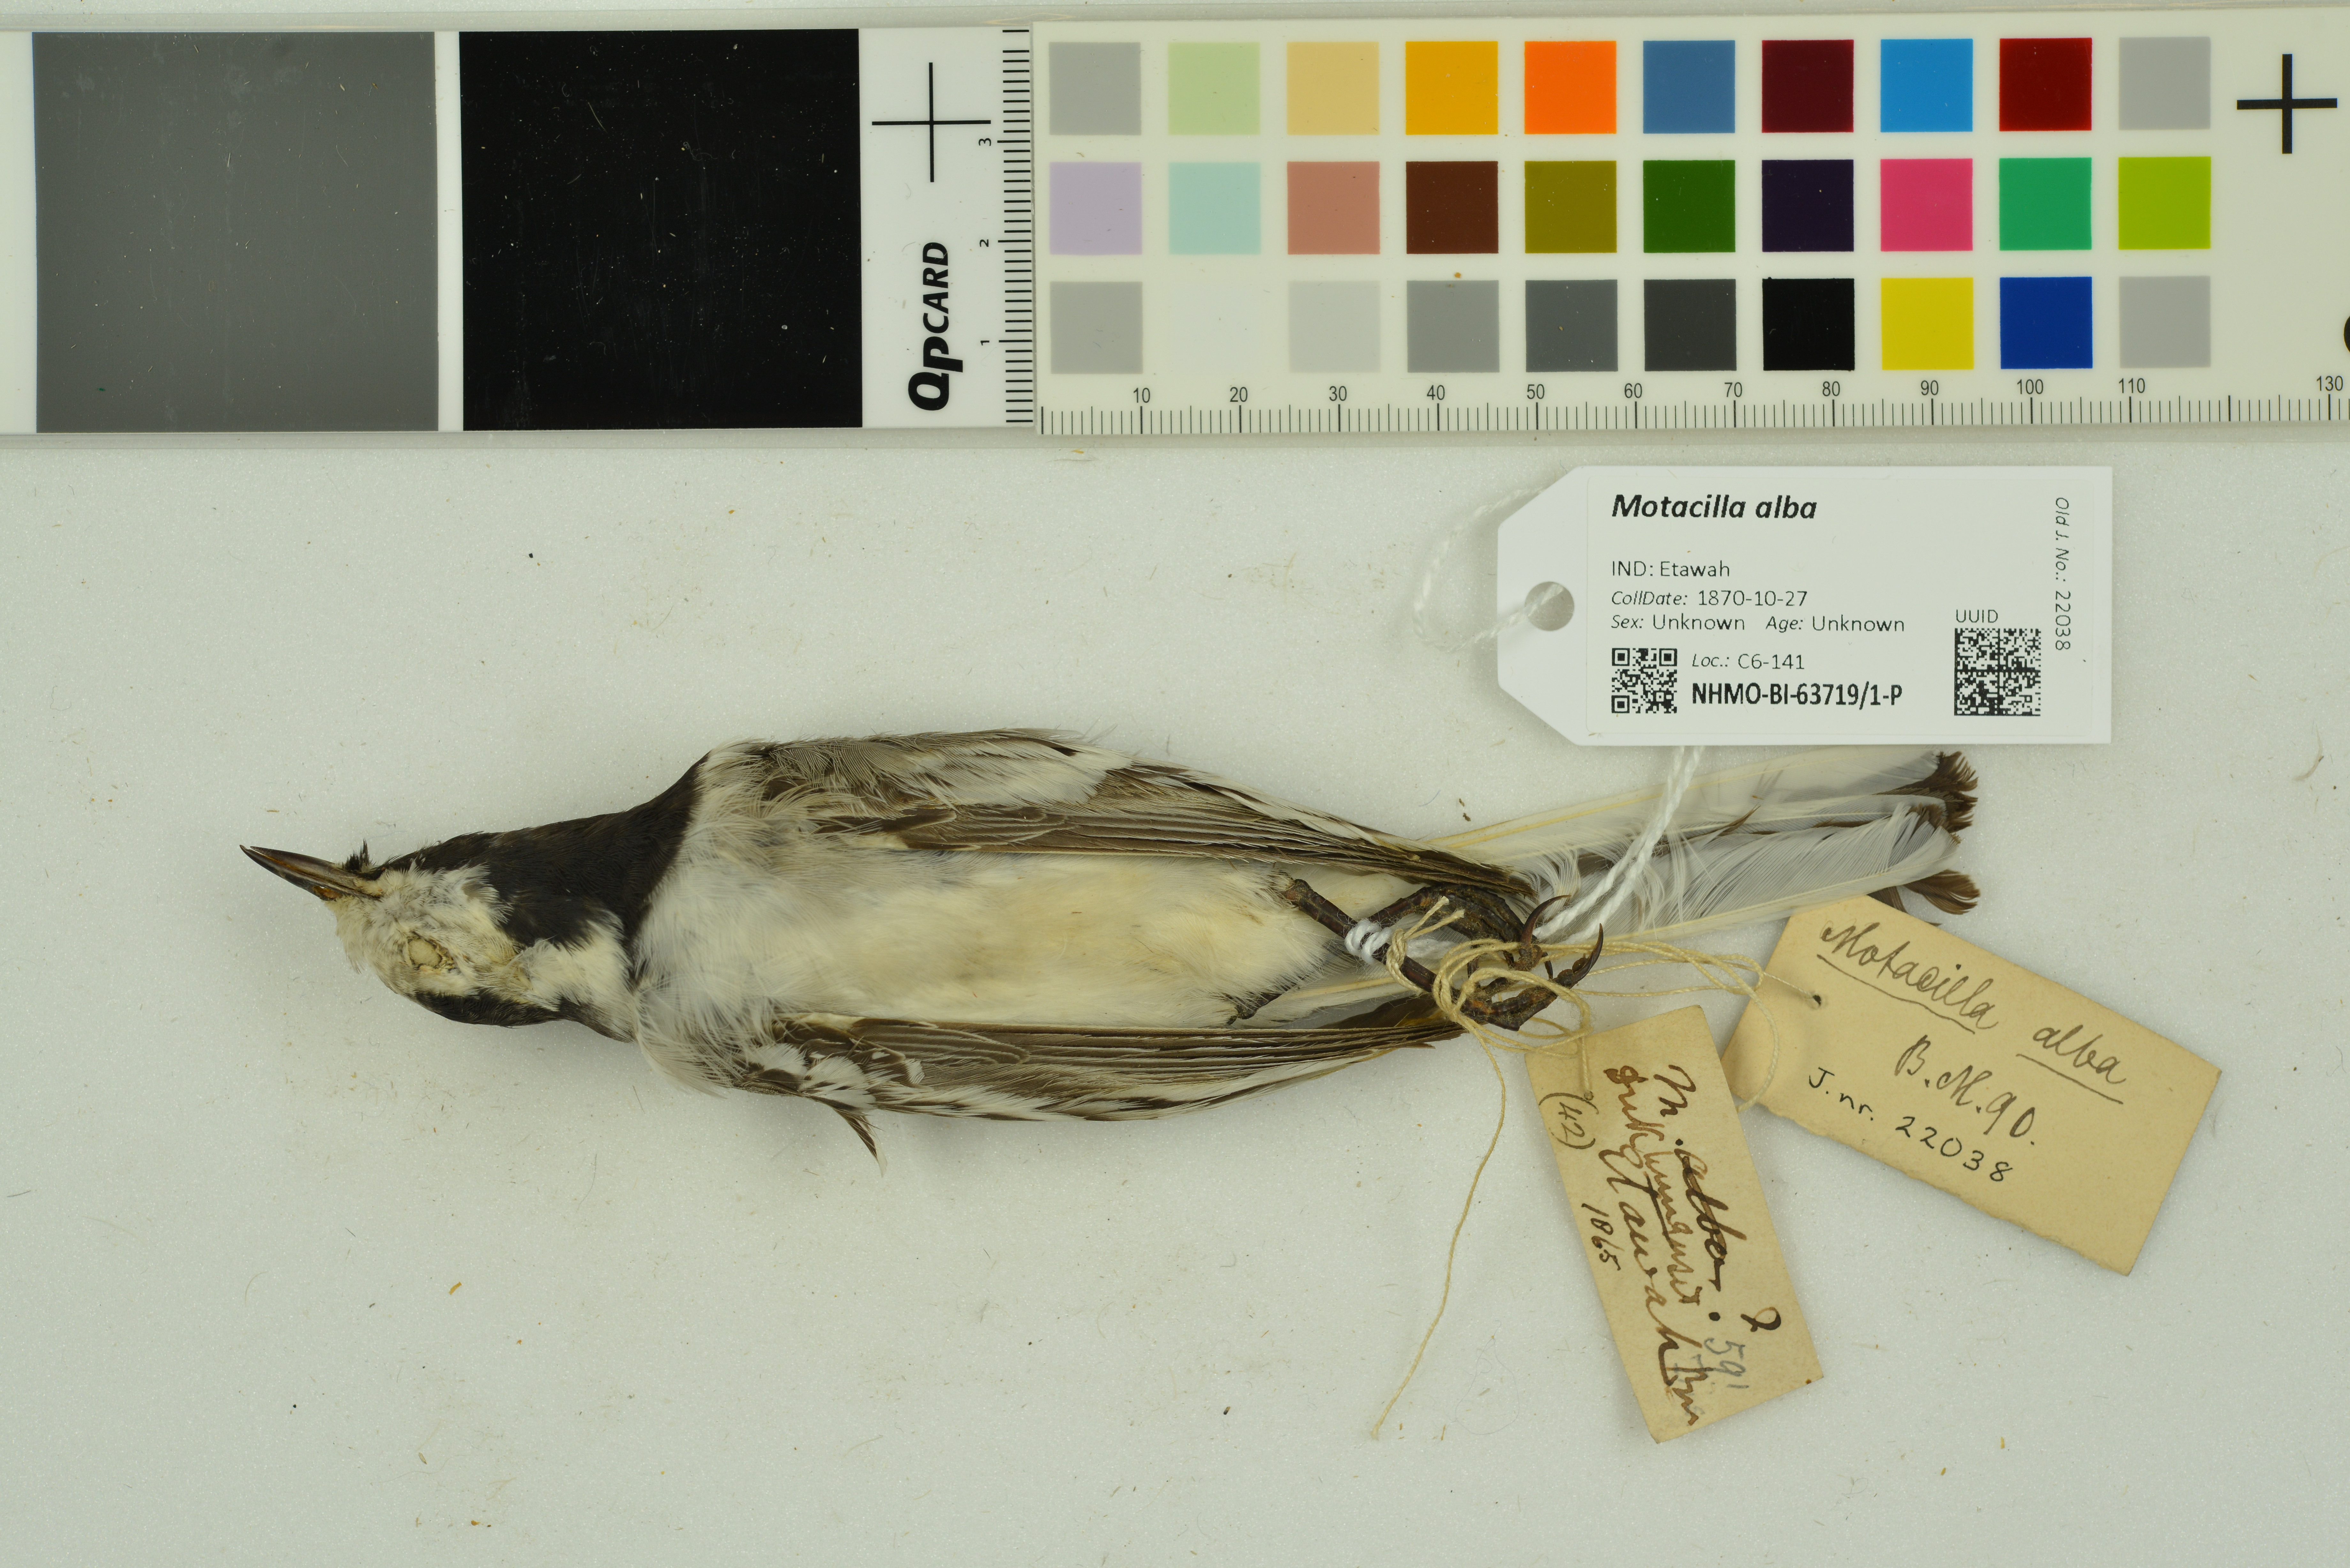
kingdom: Animalia
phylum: Chordata
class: Aves
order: Passeriformes
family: Motacillidae
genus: Motacilla
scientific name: Motacilla alba
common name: White wagtail
